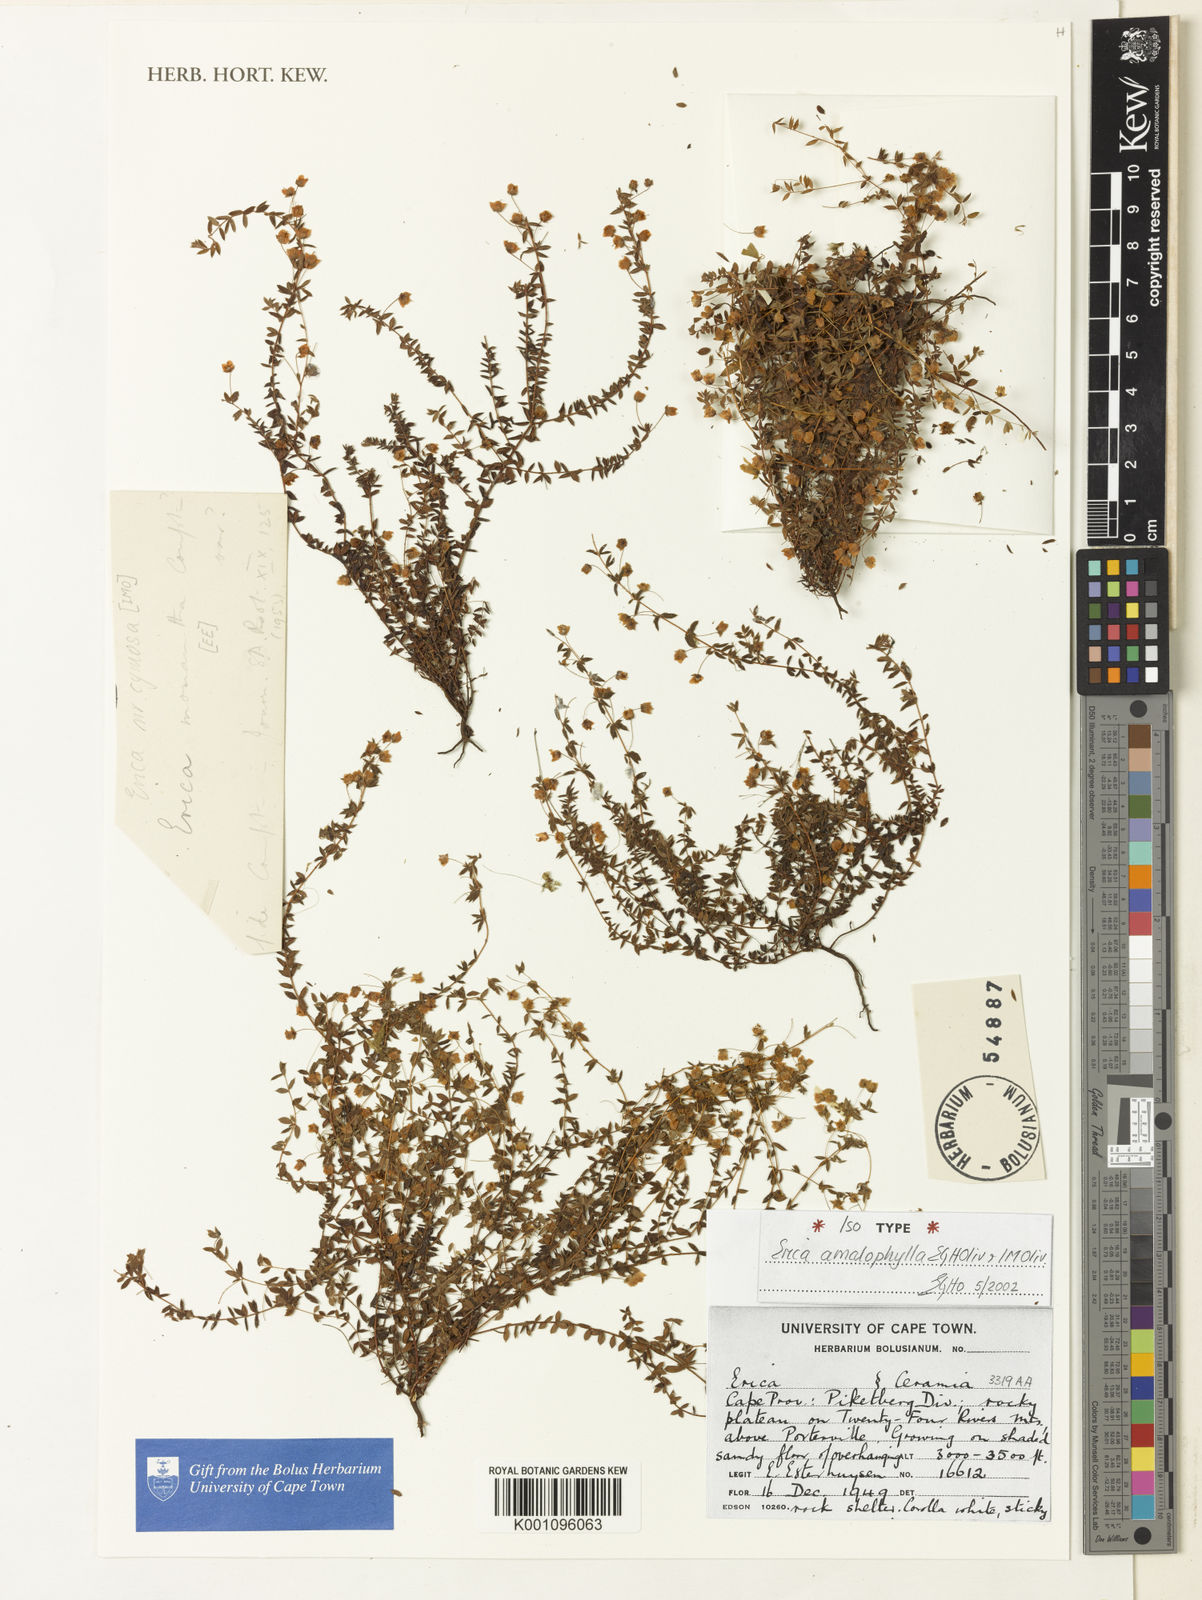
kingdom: Plantae
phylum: Tracheophyta
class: Magnoliopsida
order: Ericales
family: Ericaceae
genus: Erica
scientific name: Erica amalophylla
